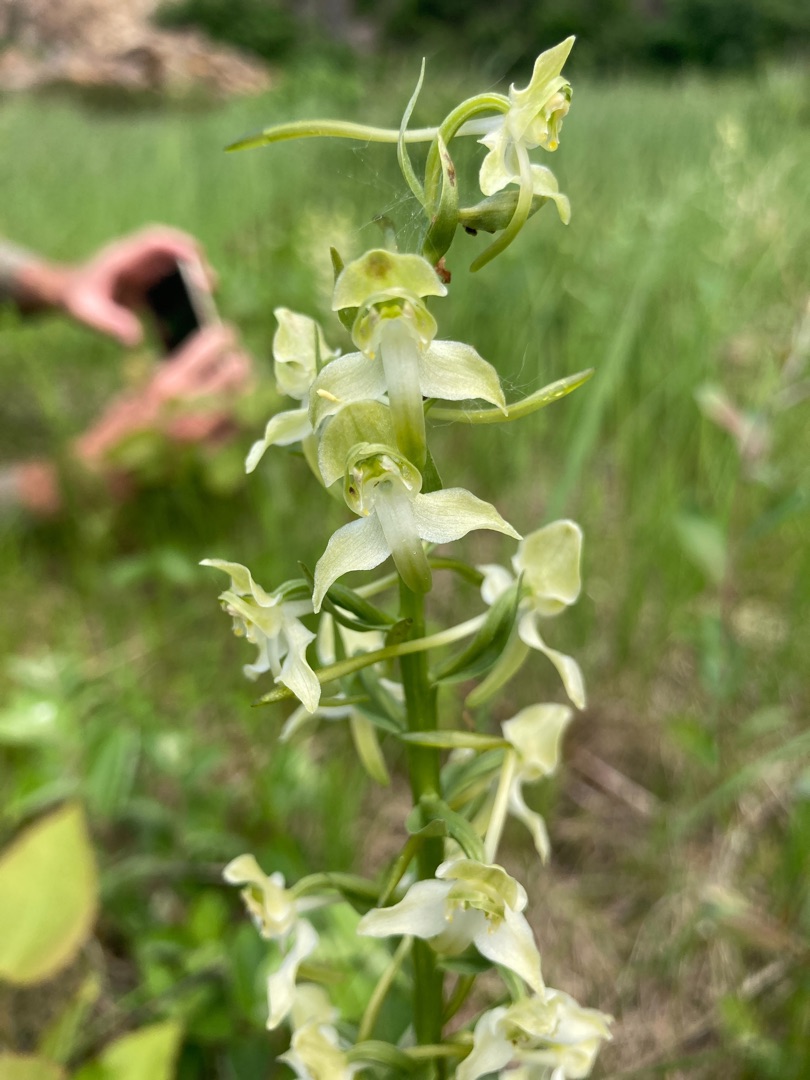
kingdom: Plantae
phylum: Tracheophyta
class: Liliopsida
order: Asparagales
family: Orchidaceae
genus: Platanthera
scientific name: Platanthera chlorantha
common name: Skov-gøgelilje
